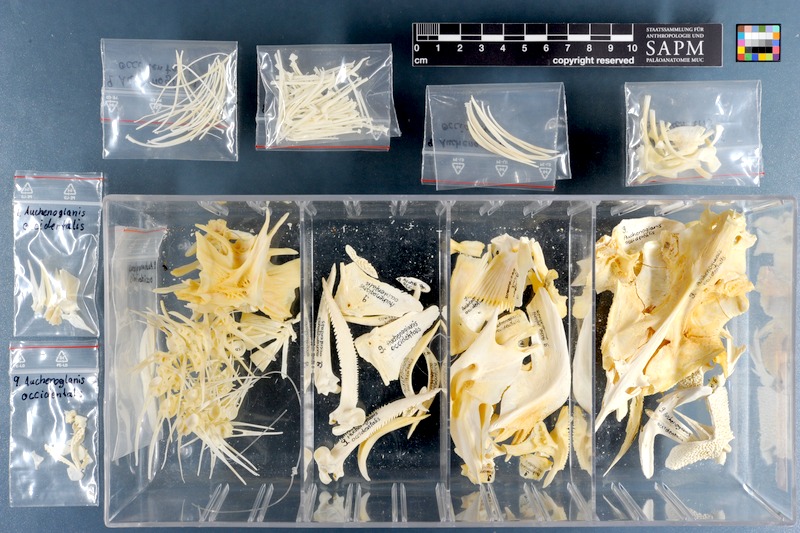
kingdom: Animalia
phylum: Chordata
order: Siluriformes
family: Claroteidae
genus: Auchenoglanis
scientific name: Auchenoglanis occidentalis
